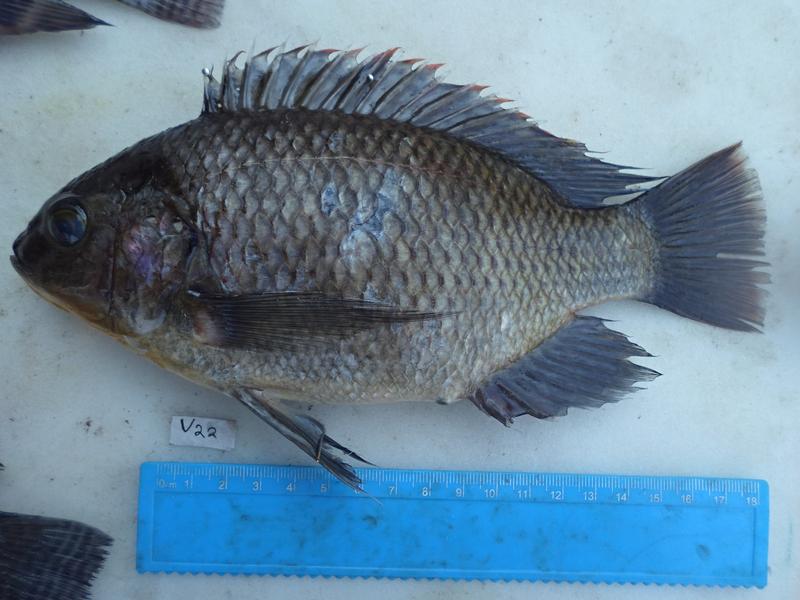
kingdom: Animalia
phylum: Chordata
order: Perciformes
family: Cichlidae
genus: Oreochromis
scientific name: Oreochromis variabilis
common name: Victoria tilapia
